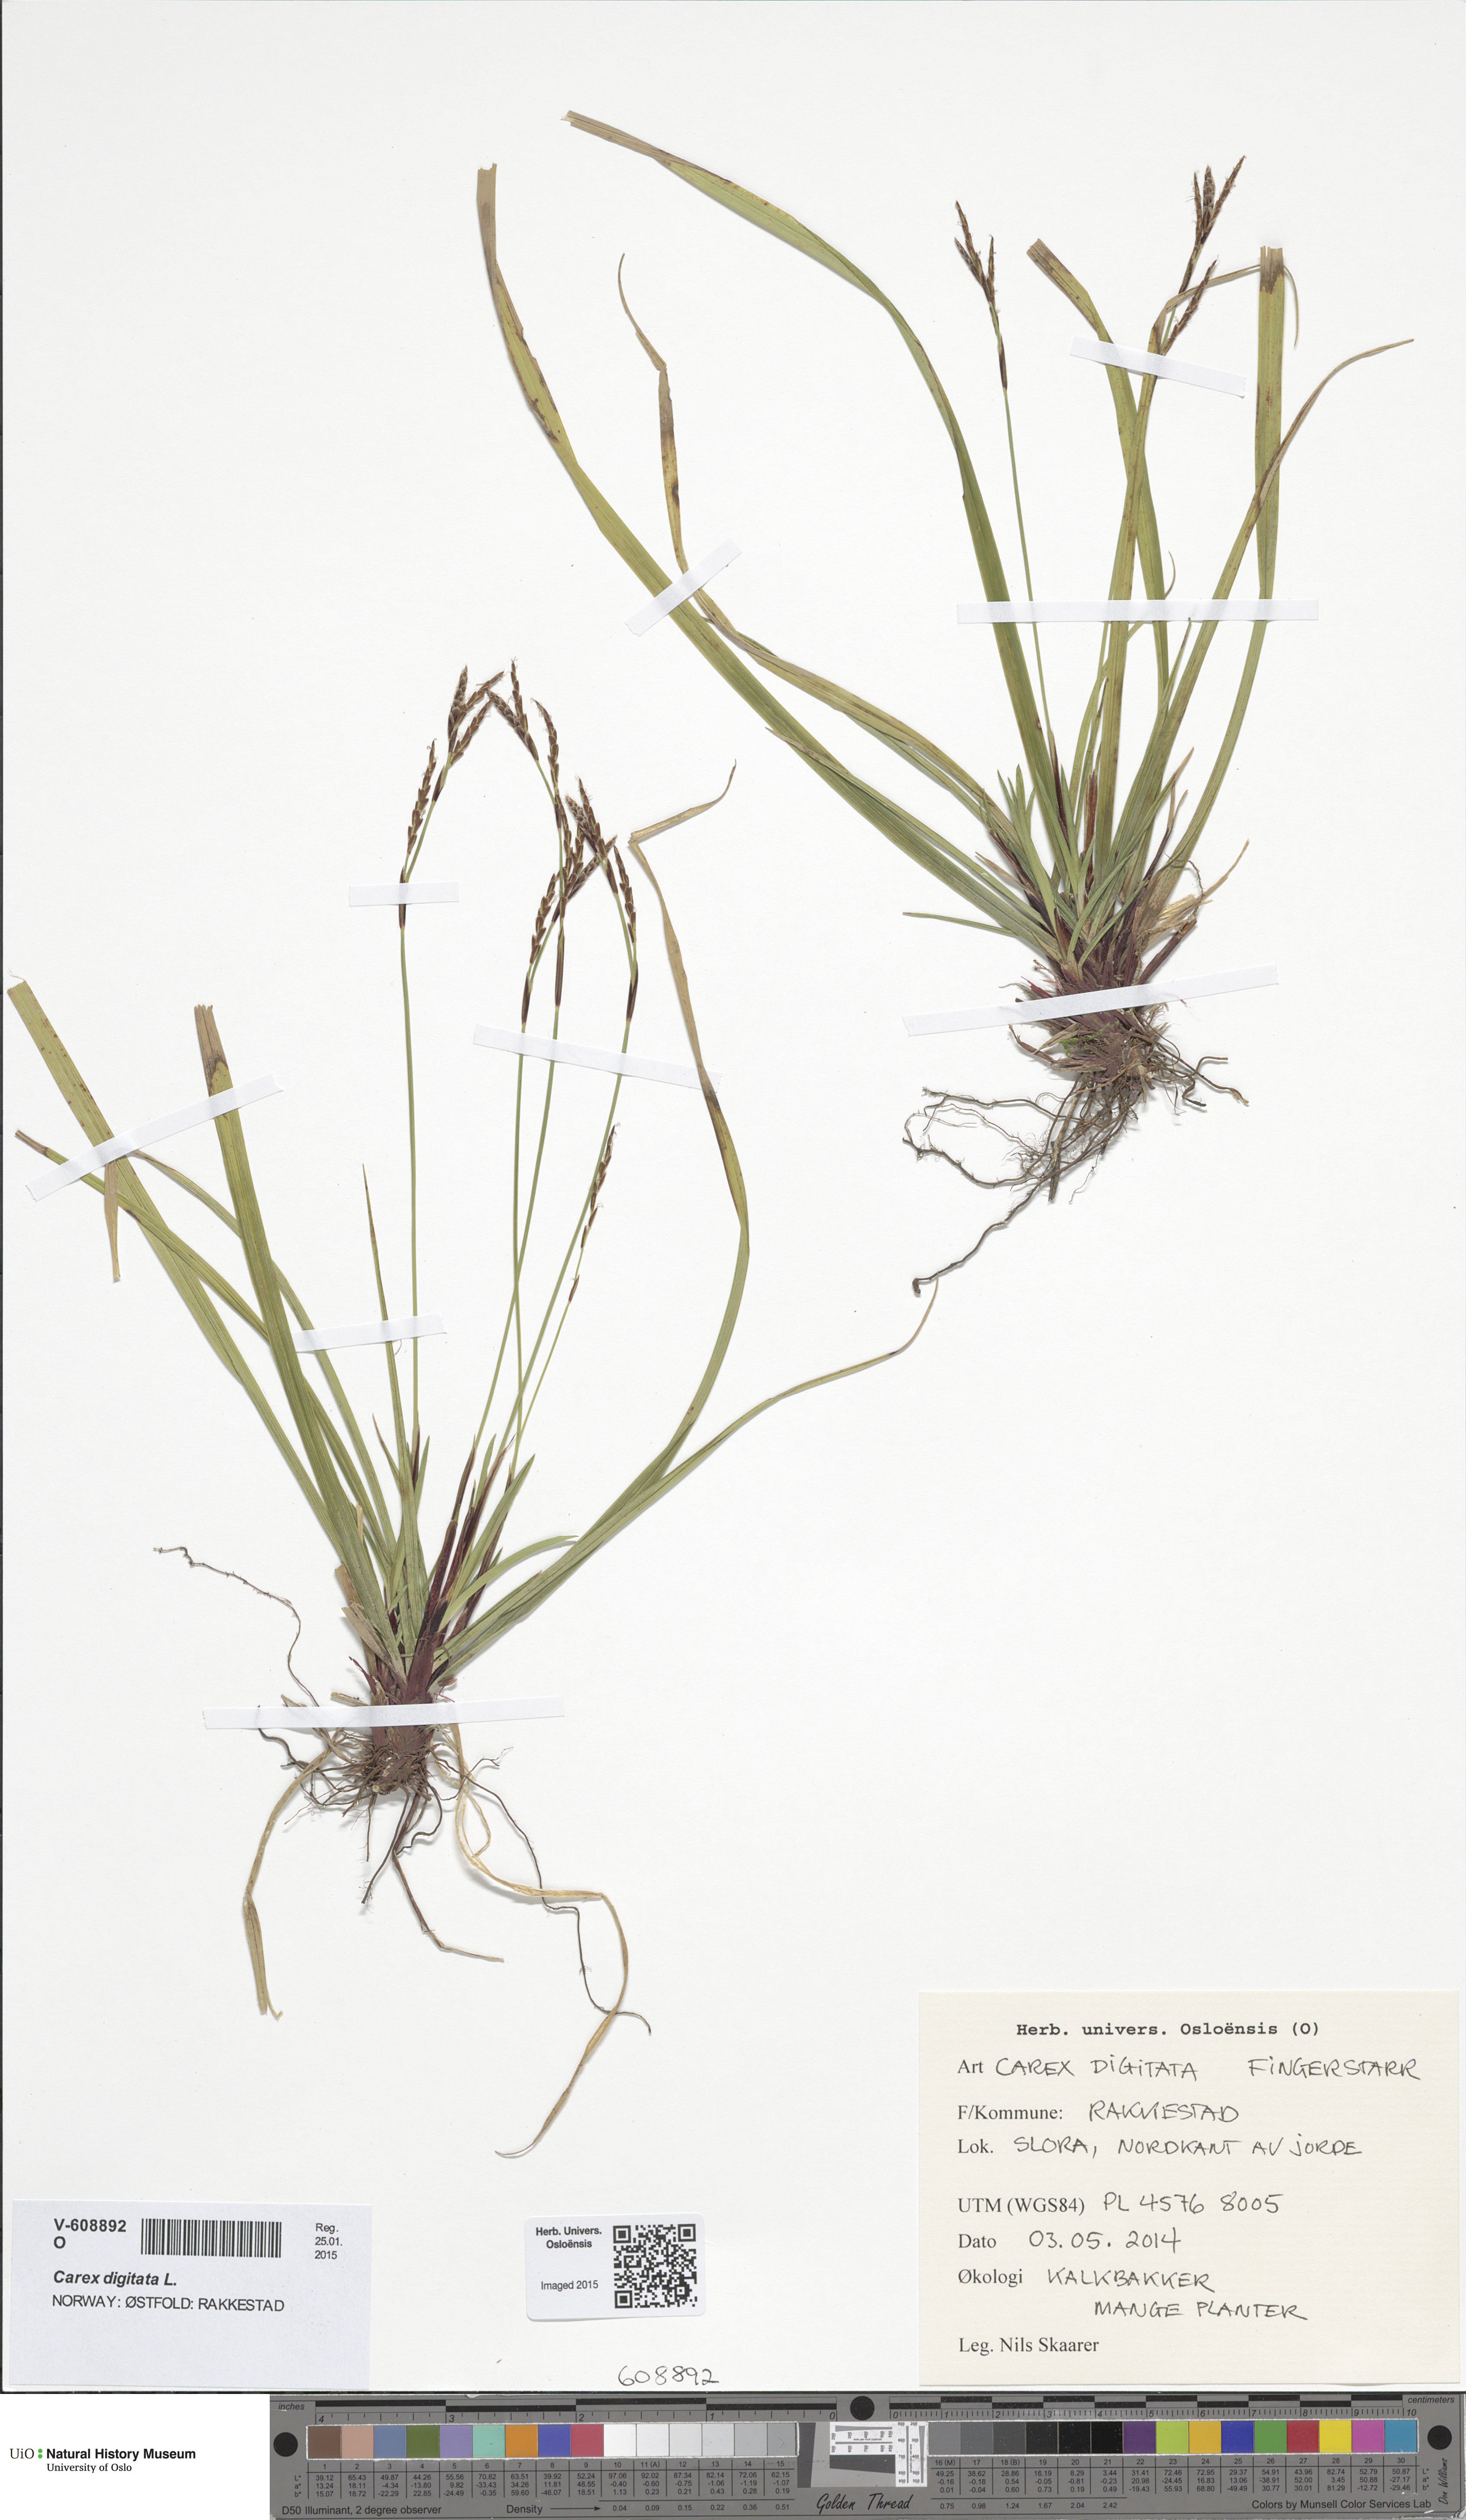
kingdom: Plantae
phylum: Tracheophyta
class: Liliopsida
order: Poales
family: Cyperaceae
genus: Carex
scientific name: Carex digitata
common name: Fingered sedge
